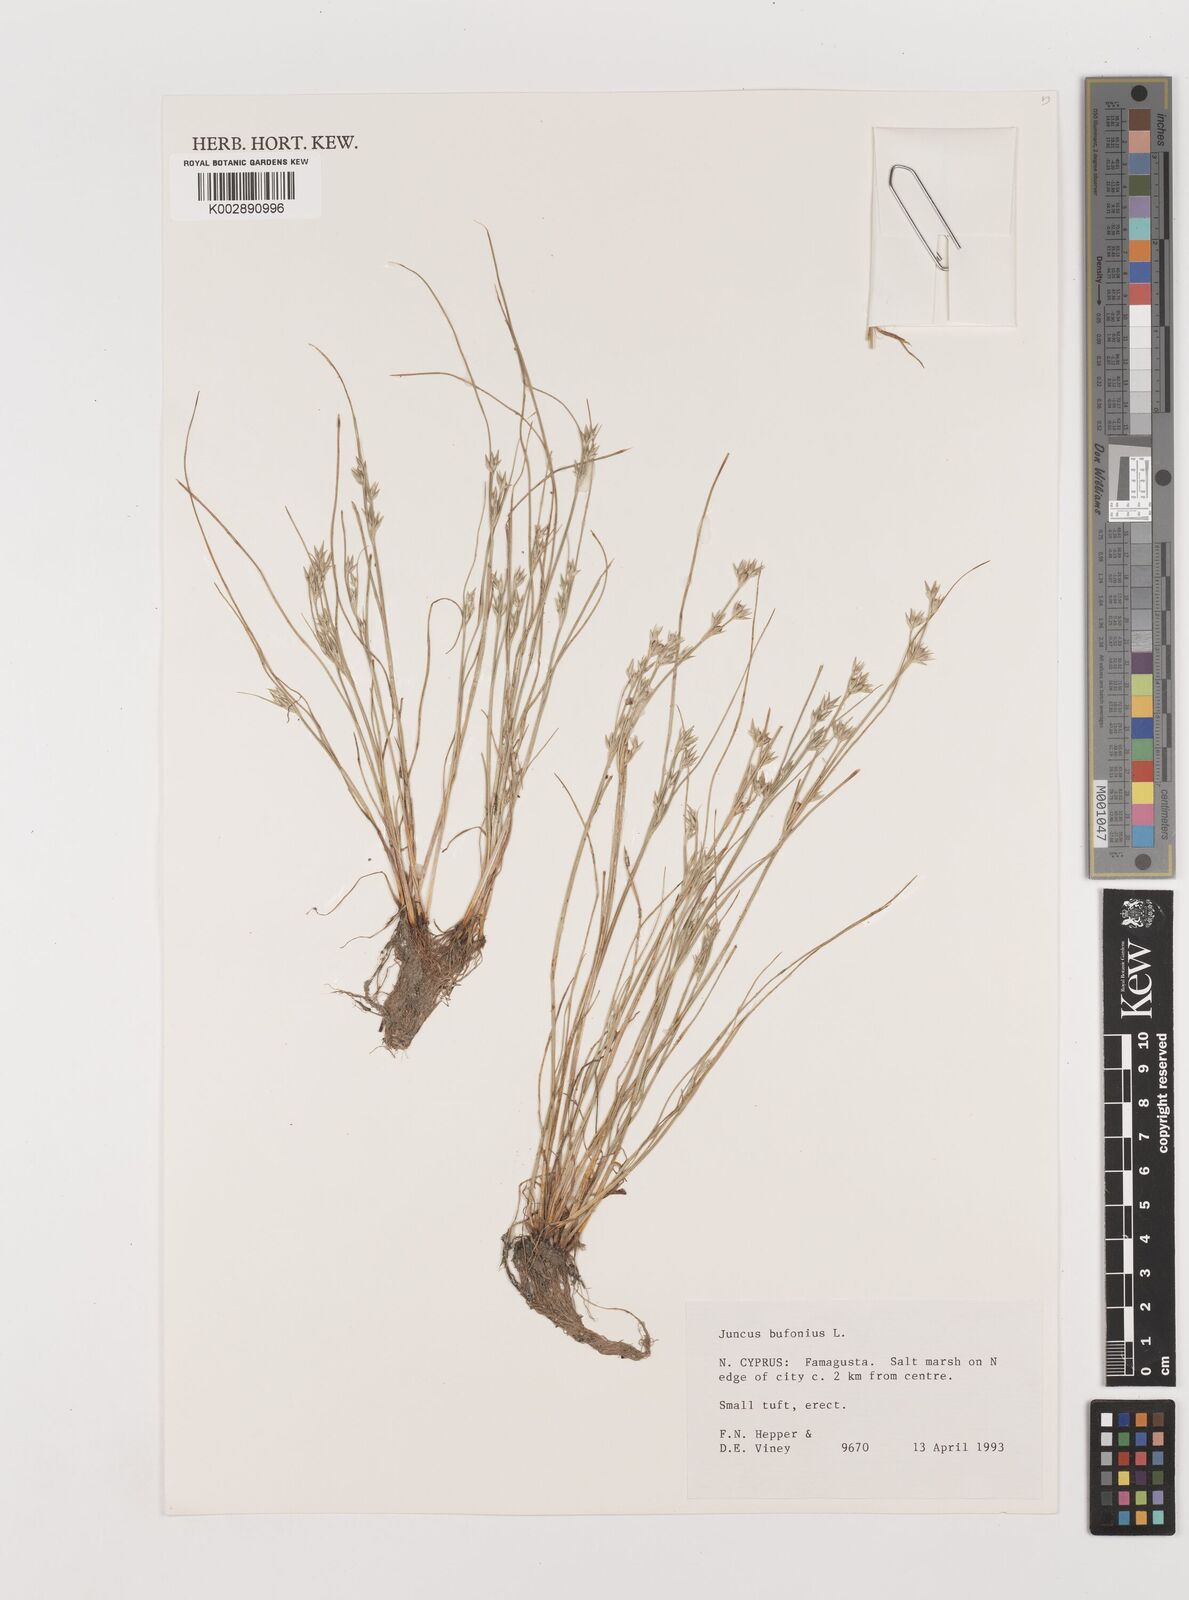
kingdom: Plantae
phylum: Tracheophyta
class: Liliopsida
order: Poales
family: Juncaceae
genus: Juncus
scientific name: Juncus bufonius
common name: Toad rush
